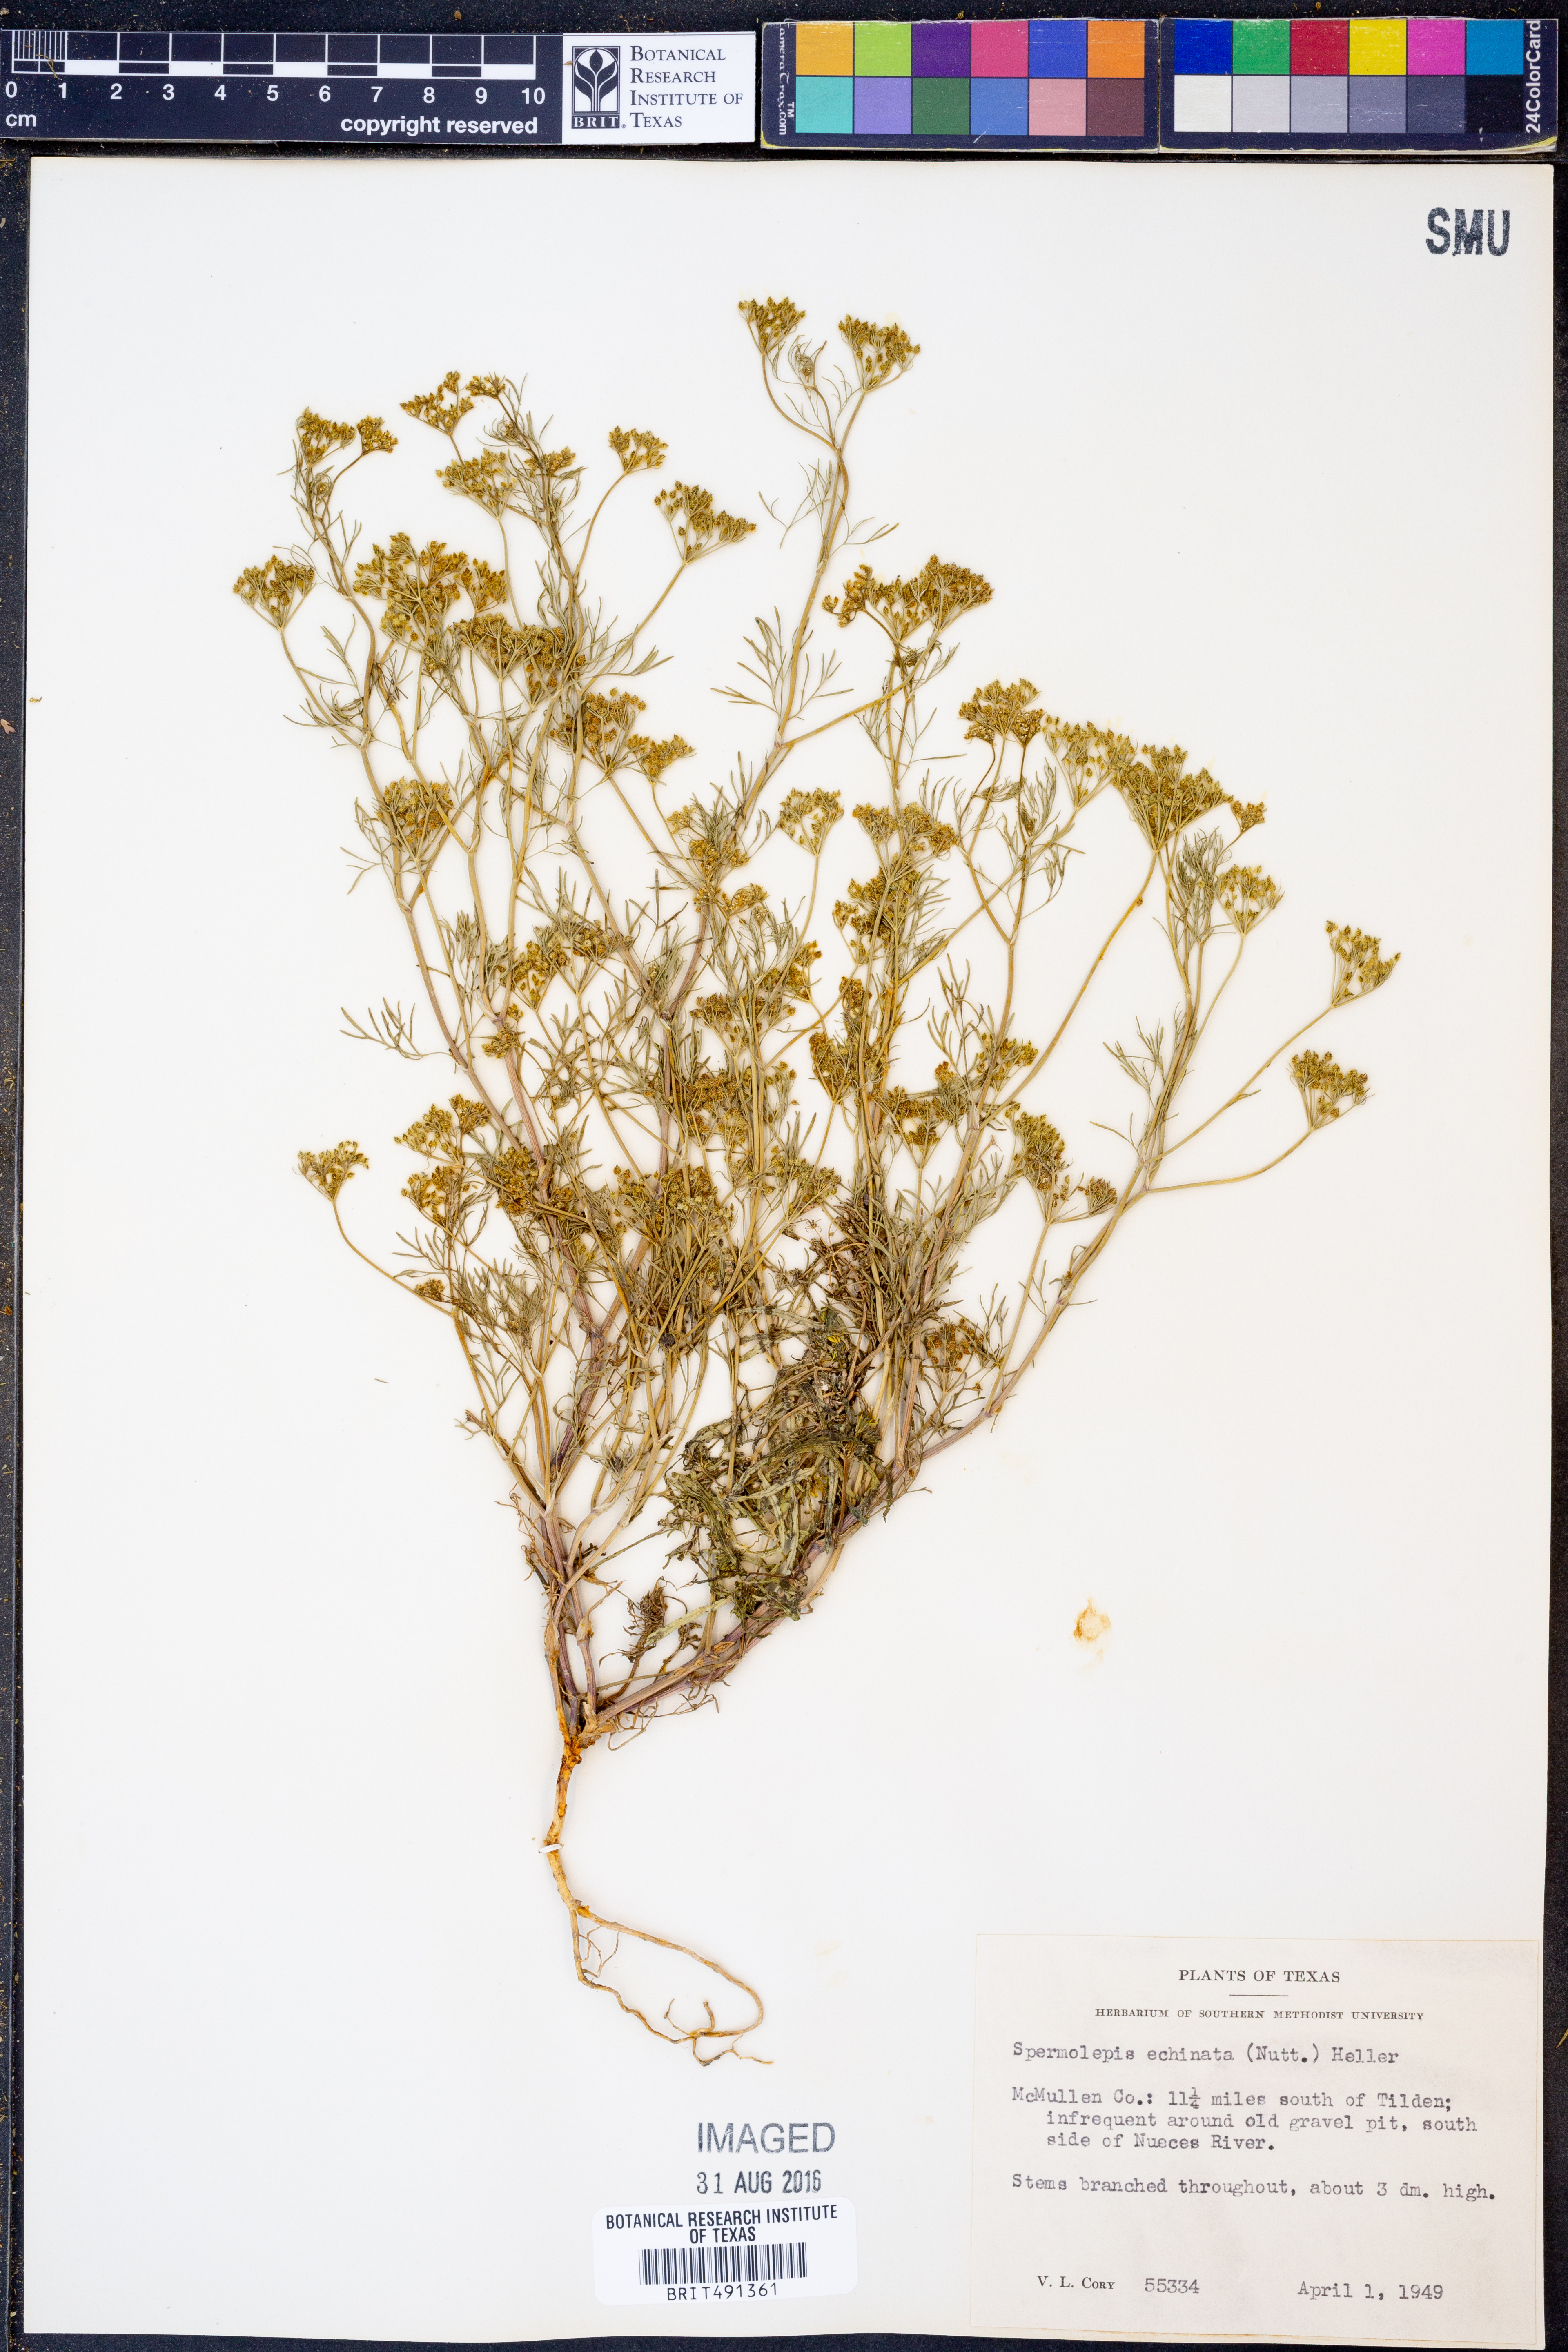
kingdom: Plantae
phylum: Tracheophyta
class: Magnoliopsida
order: Apiales
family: Apiaceae
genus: Spermolepis
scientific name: Spermolepis echinata
